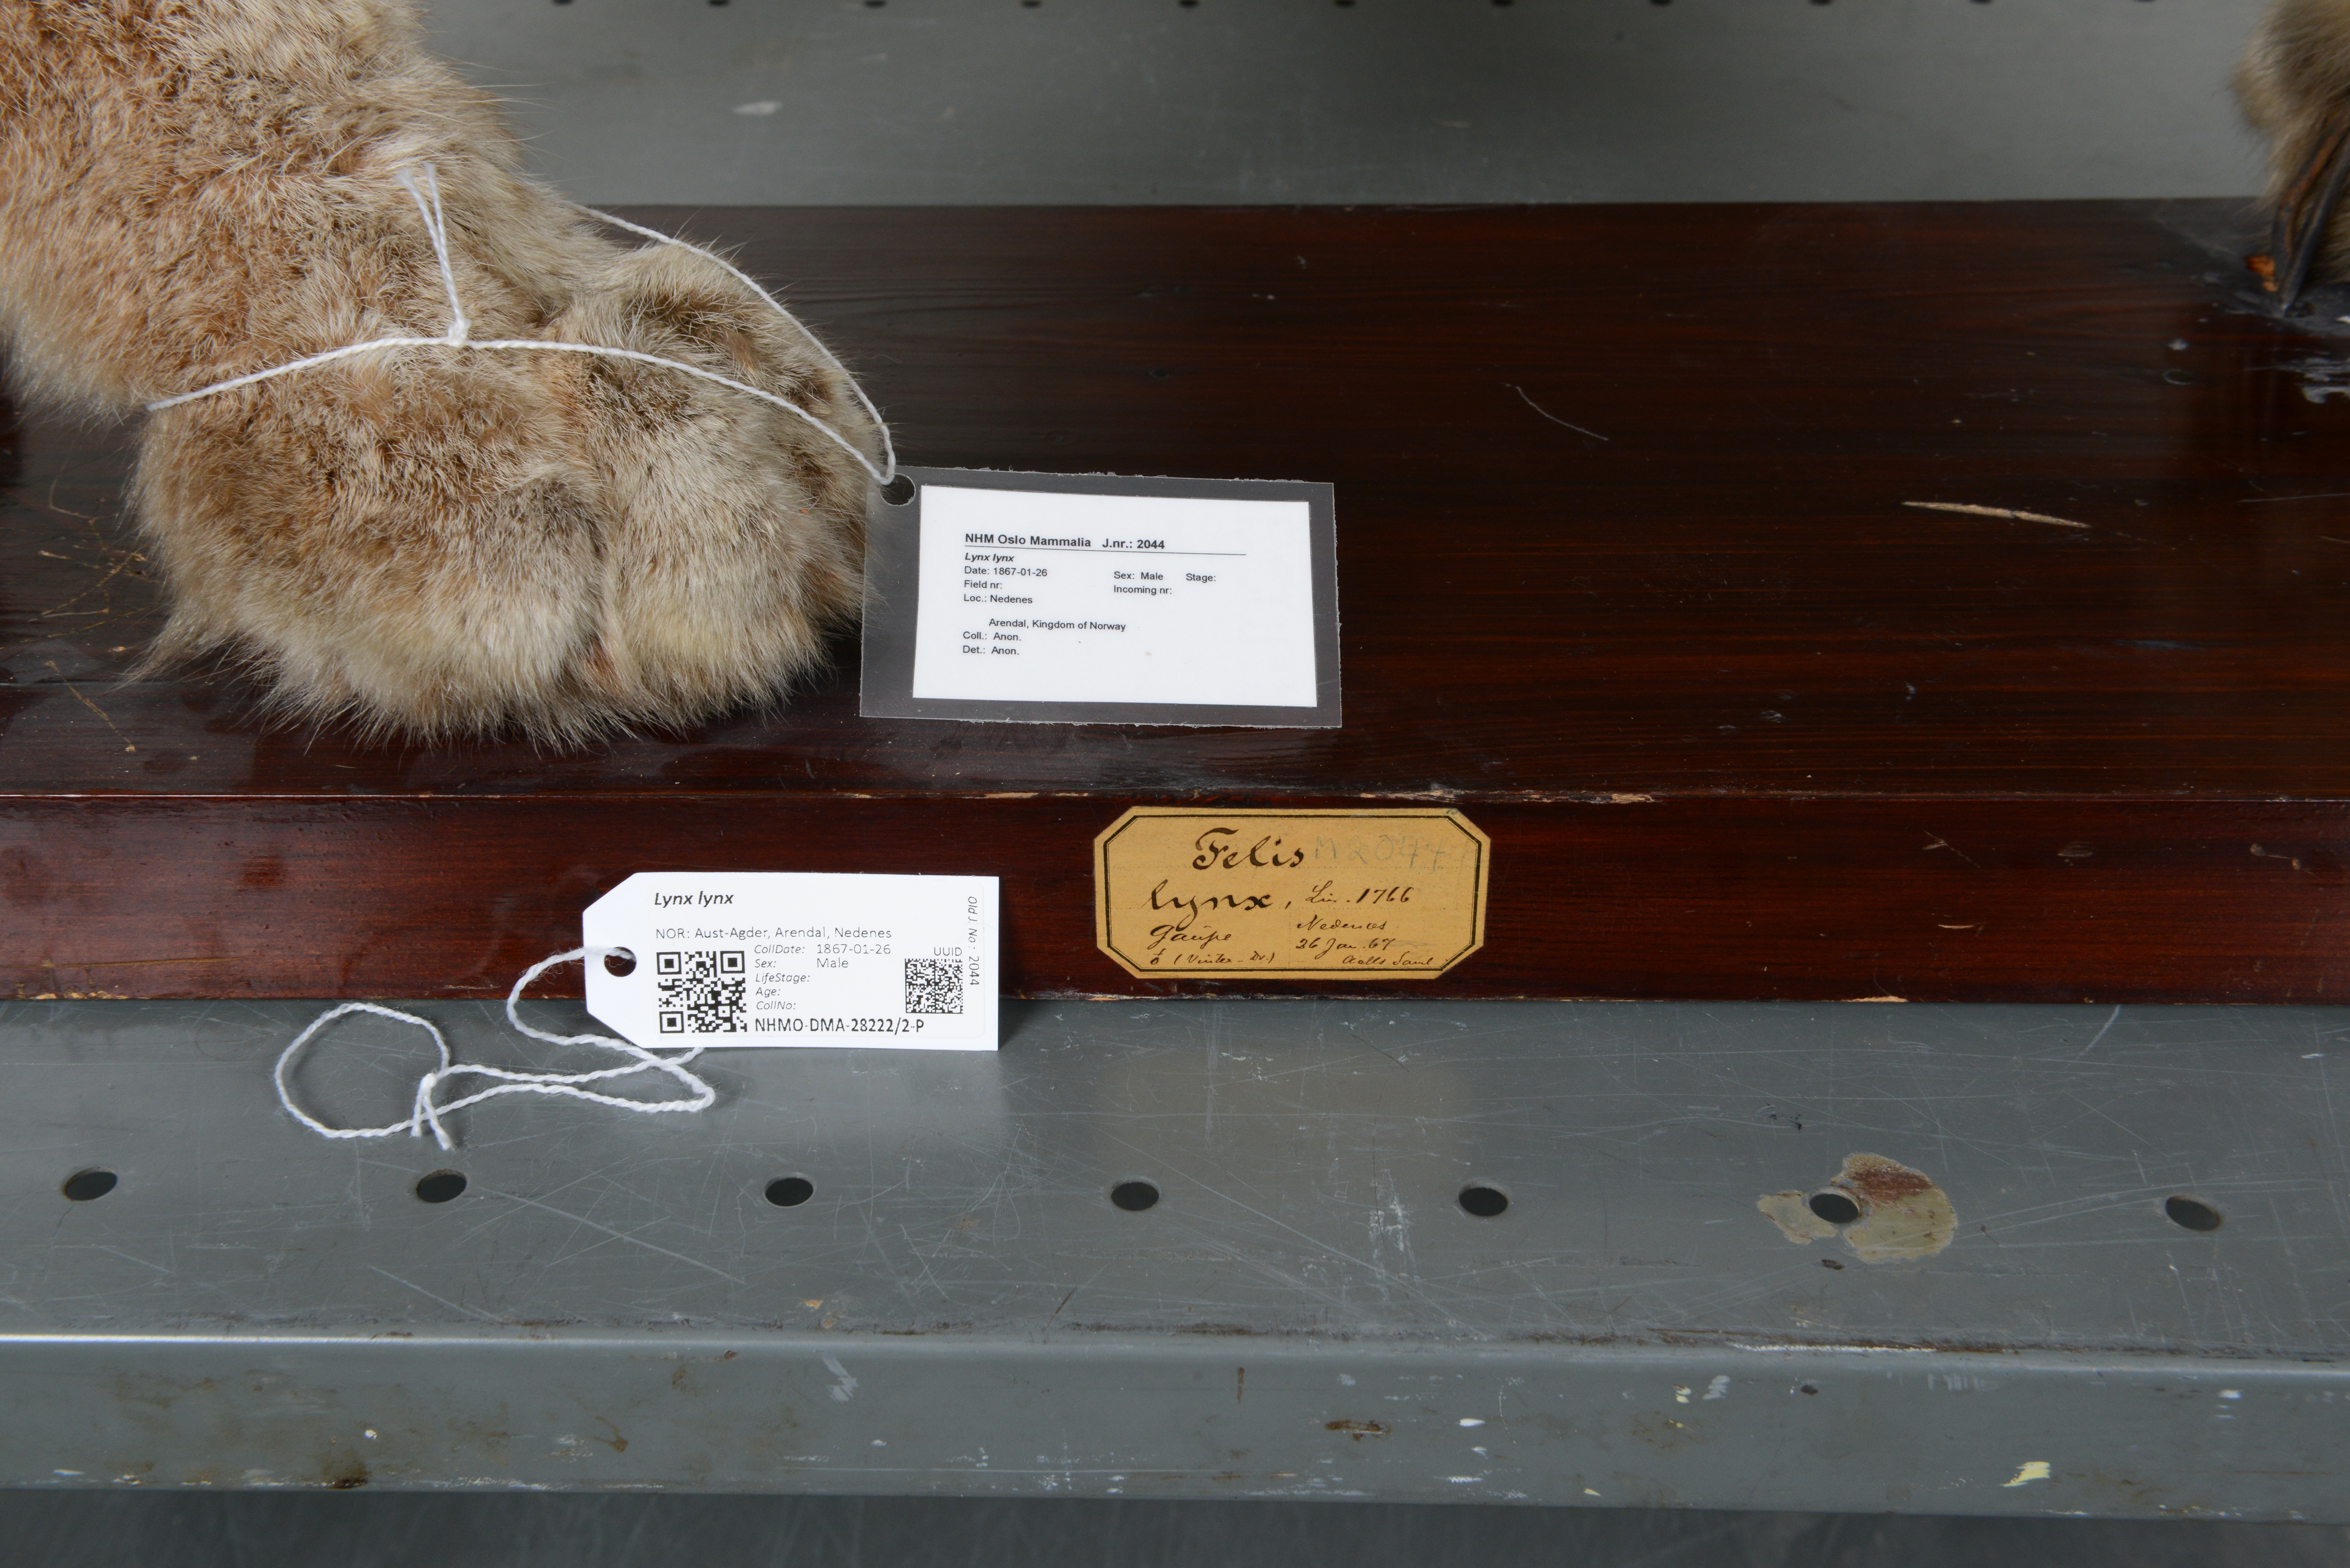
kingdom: Animalia
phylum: Chordata
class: Mammalia
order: Carnivora
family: Felidae
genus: Lynx
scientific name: Lynx lynx
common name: Eurasian lynx
